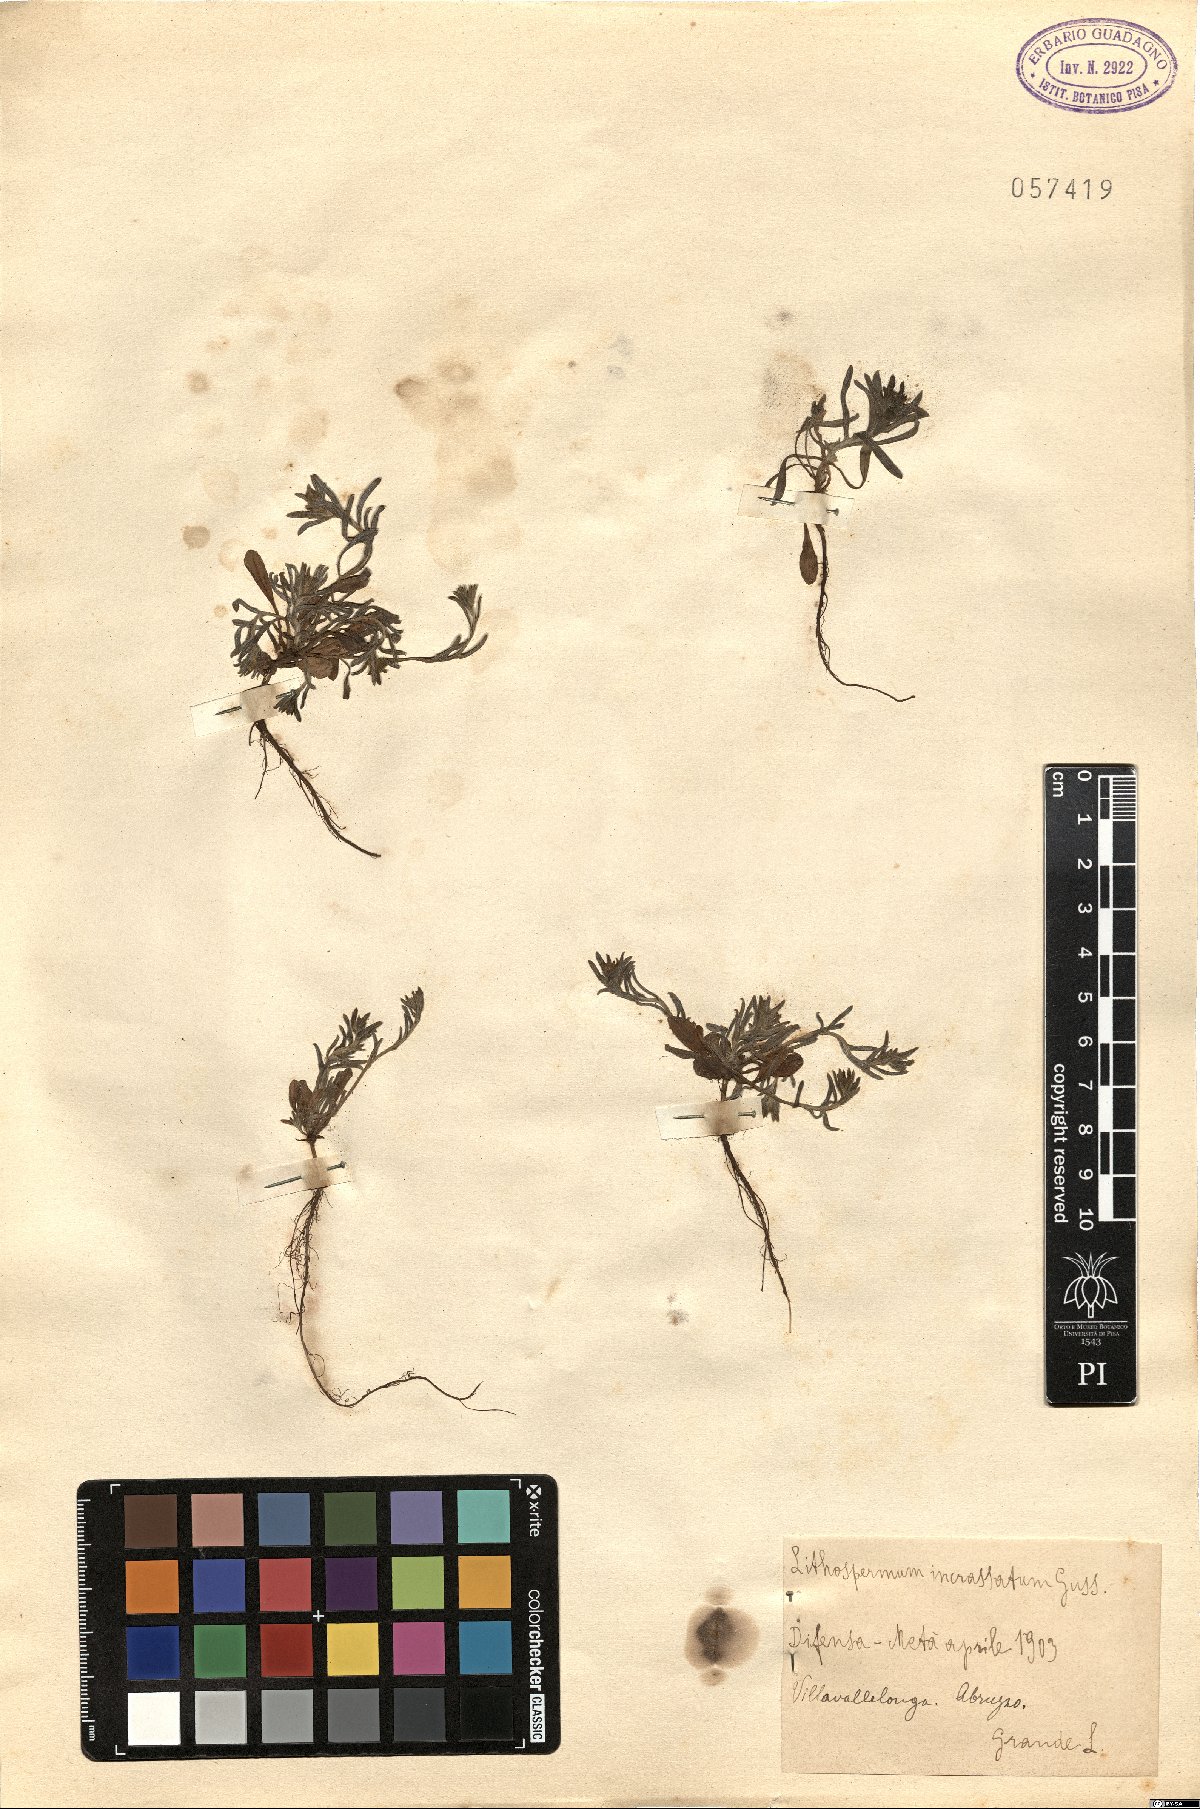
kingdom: Plantae
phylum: Tracheophyta
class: Magnoliopsida
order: Boraginales
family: Boraginaceae
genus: Buglossoides
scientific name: Buglossoides incrassata
